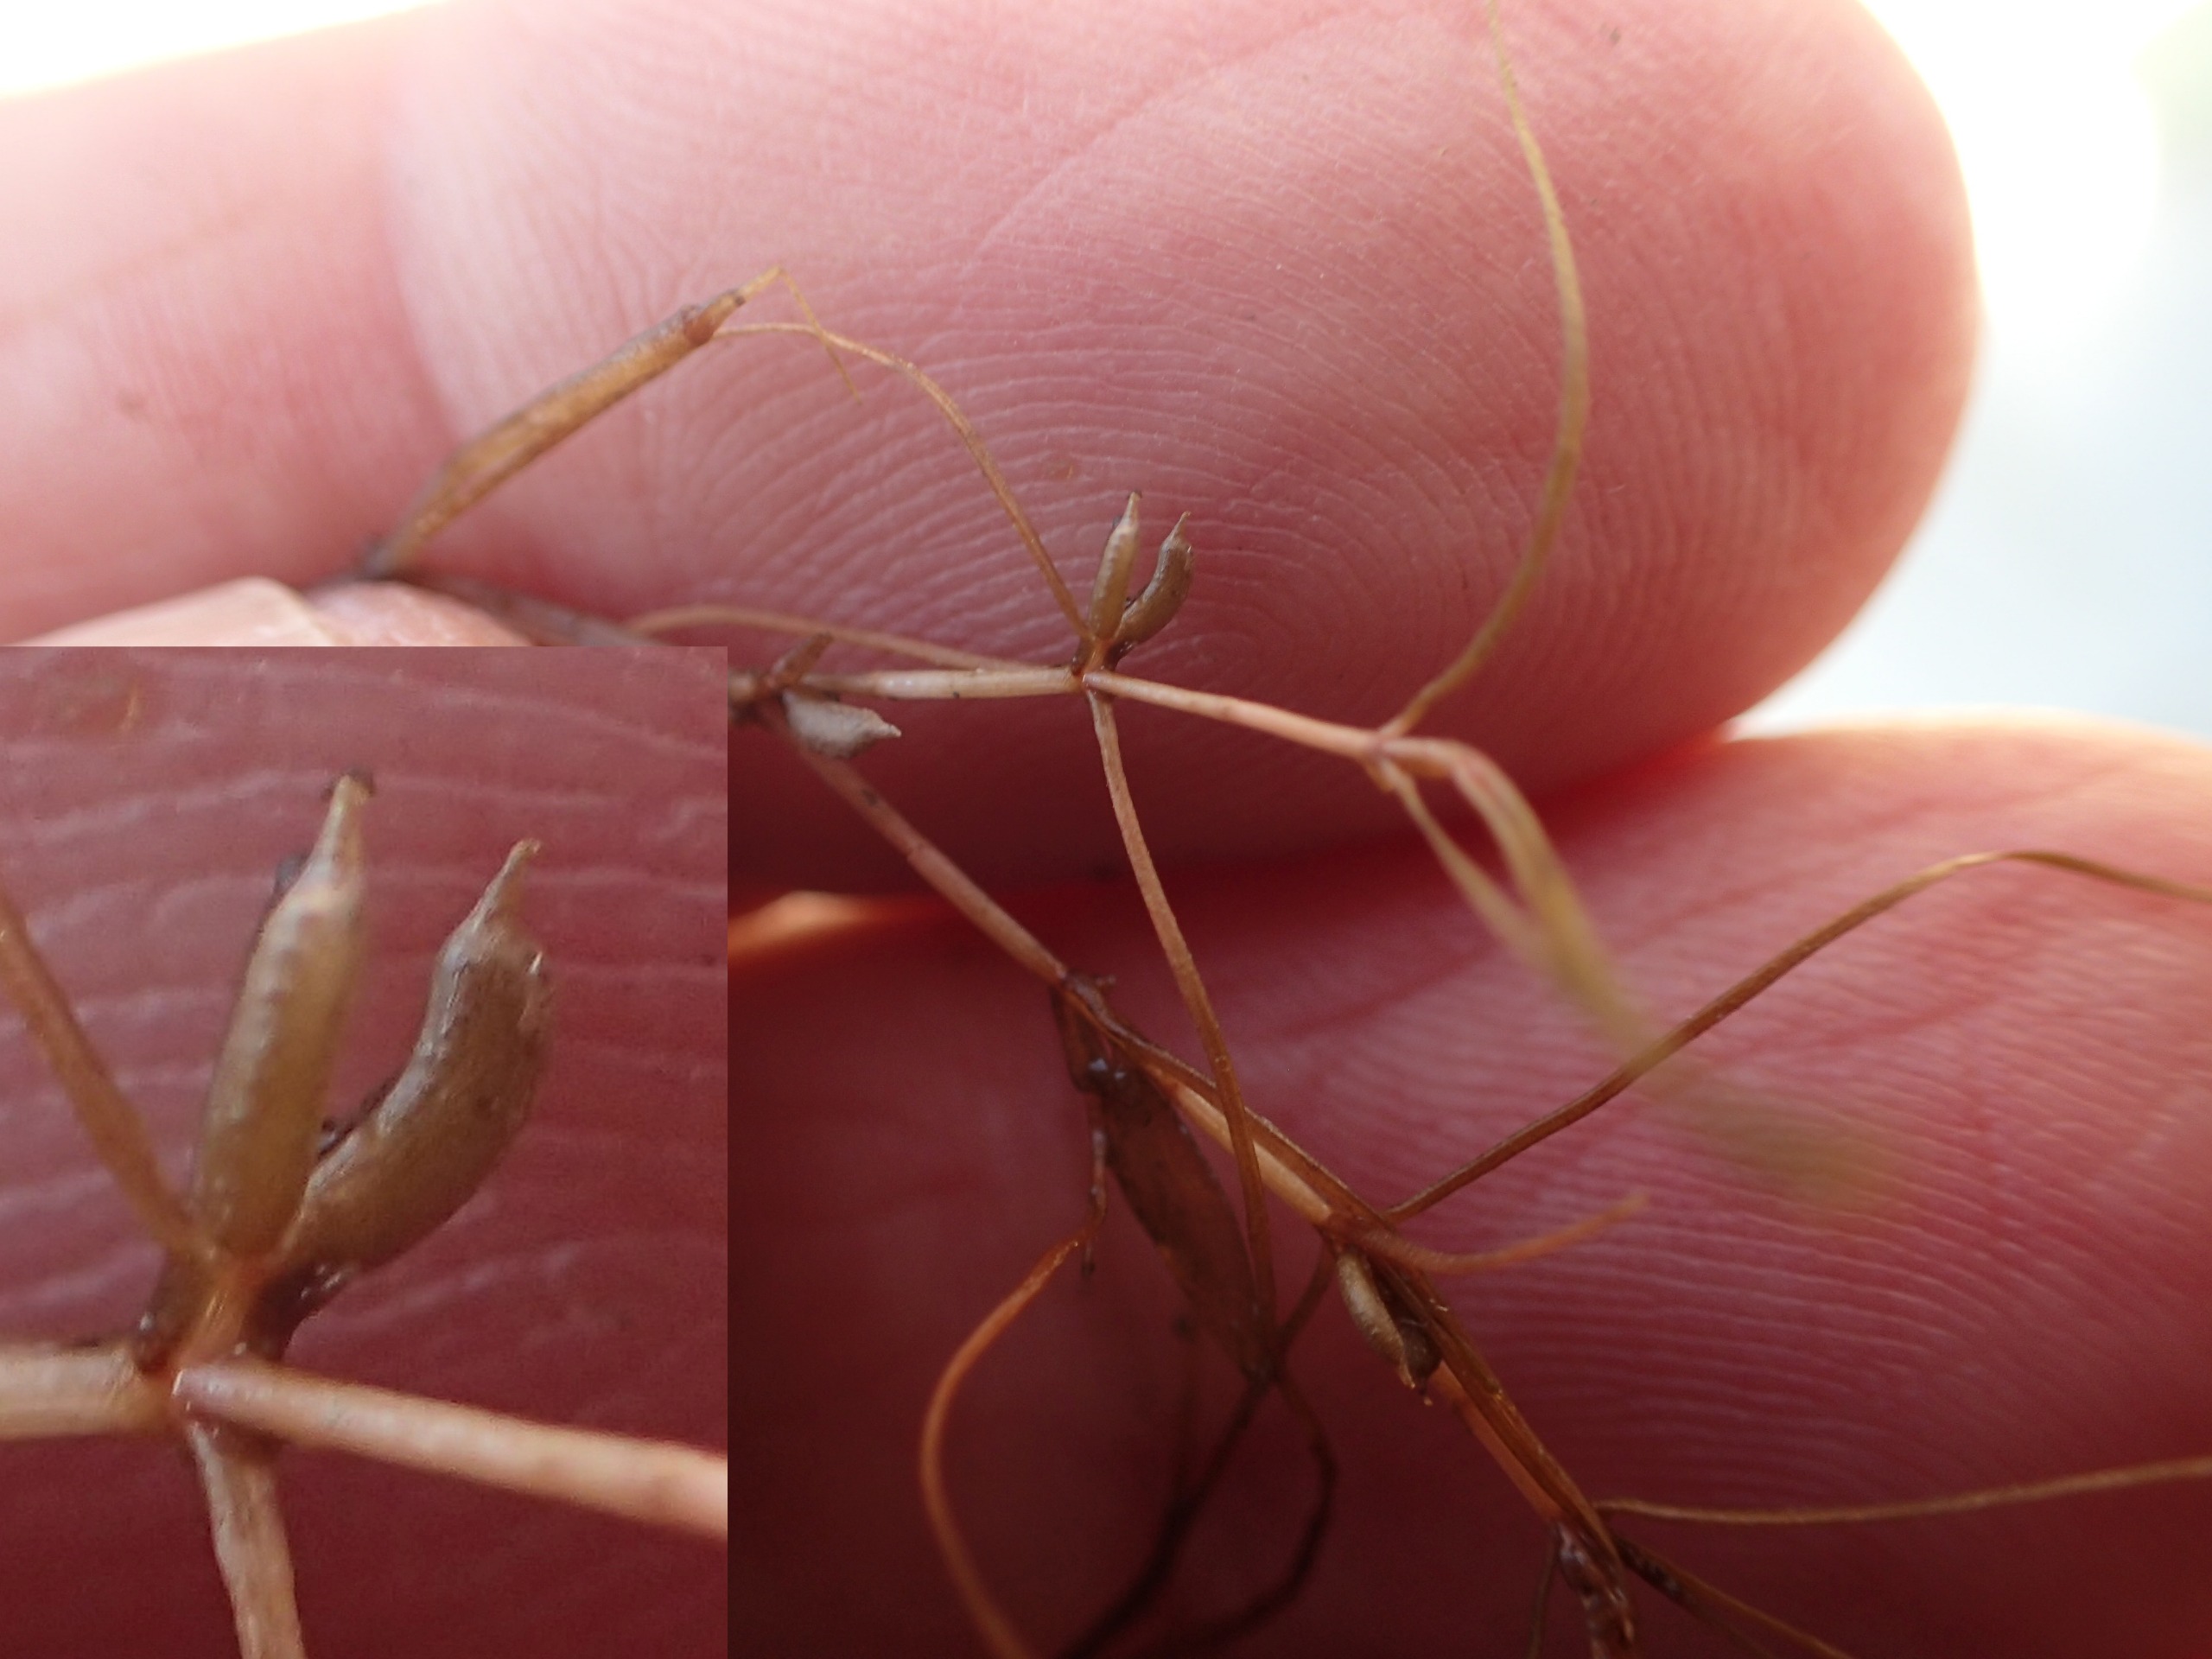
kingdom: Plantae
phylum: Tracheophyta
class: Liliopsida
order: Alismatales
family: Potamogetonaceae
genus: Zannichellia
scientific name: Zannichellia palustris
